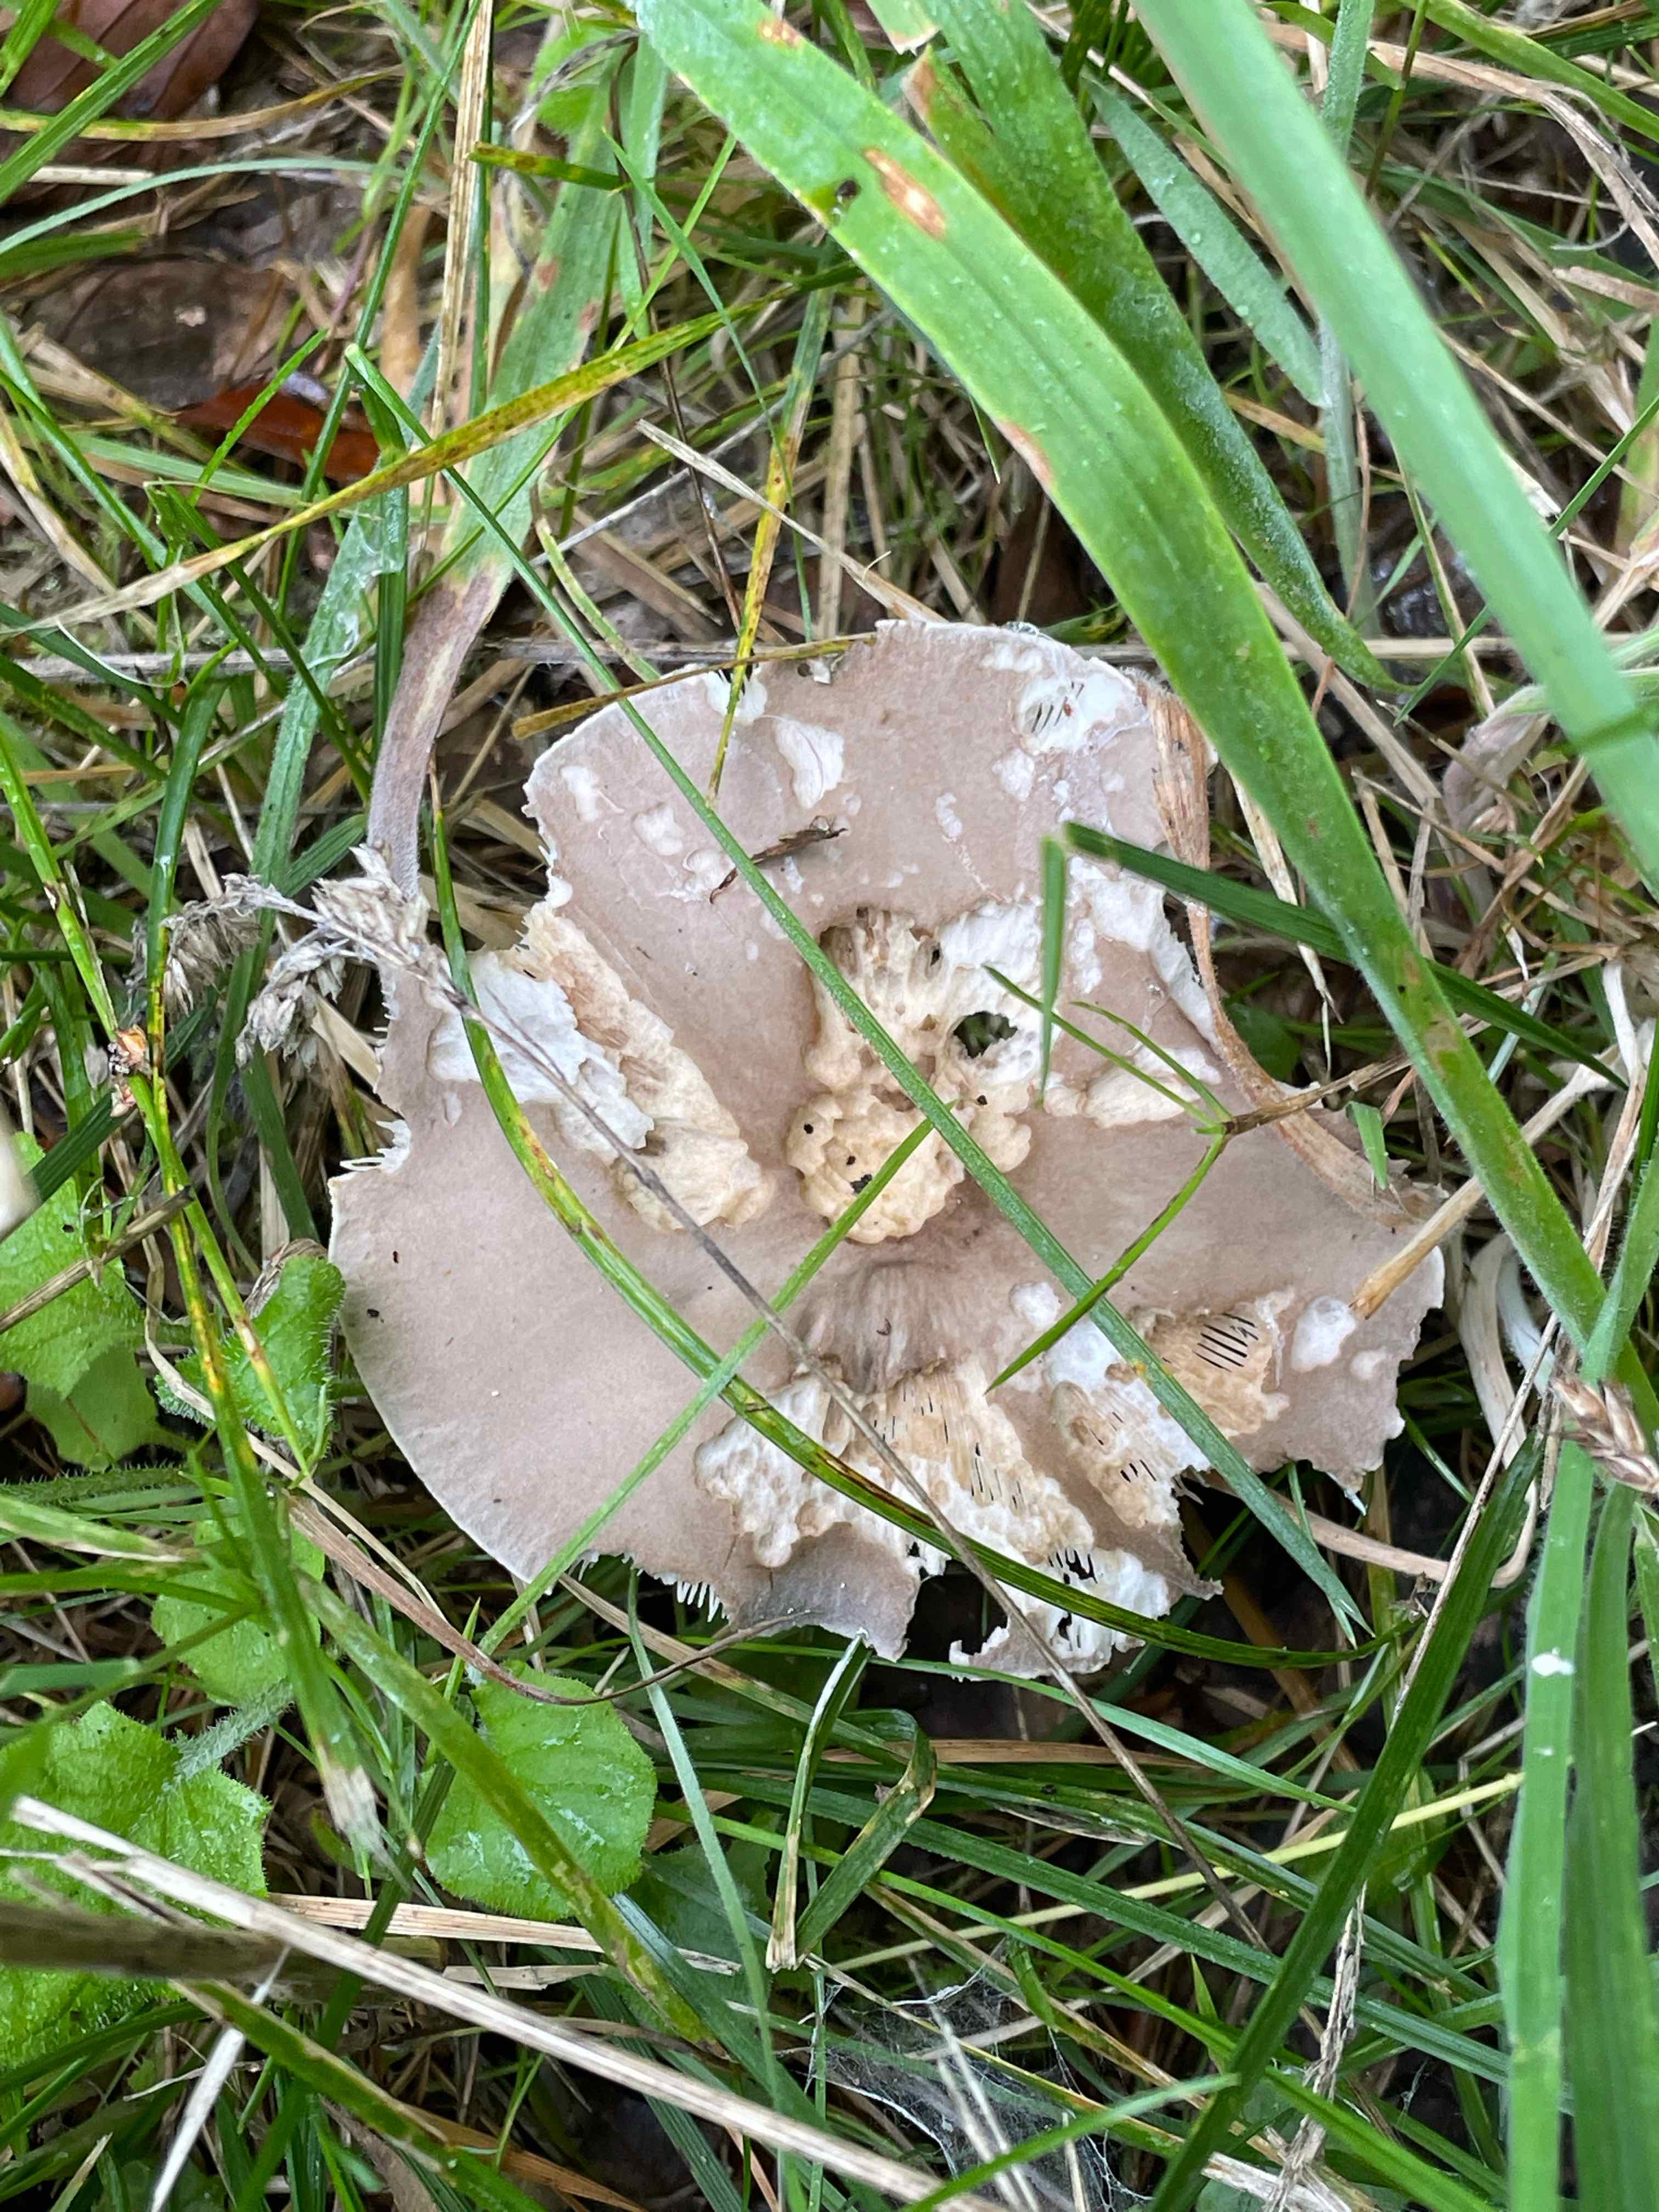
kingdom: Fungi
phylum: Basidiomycota
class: Agaricomycetes
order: Agaricales
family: Tricholomataceae
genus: Melanoleuca
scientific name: Melanoleuca
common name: munkehat
